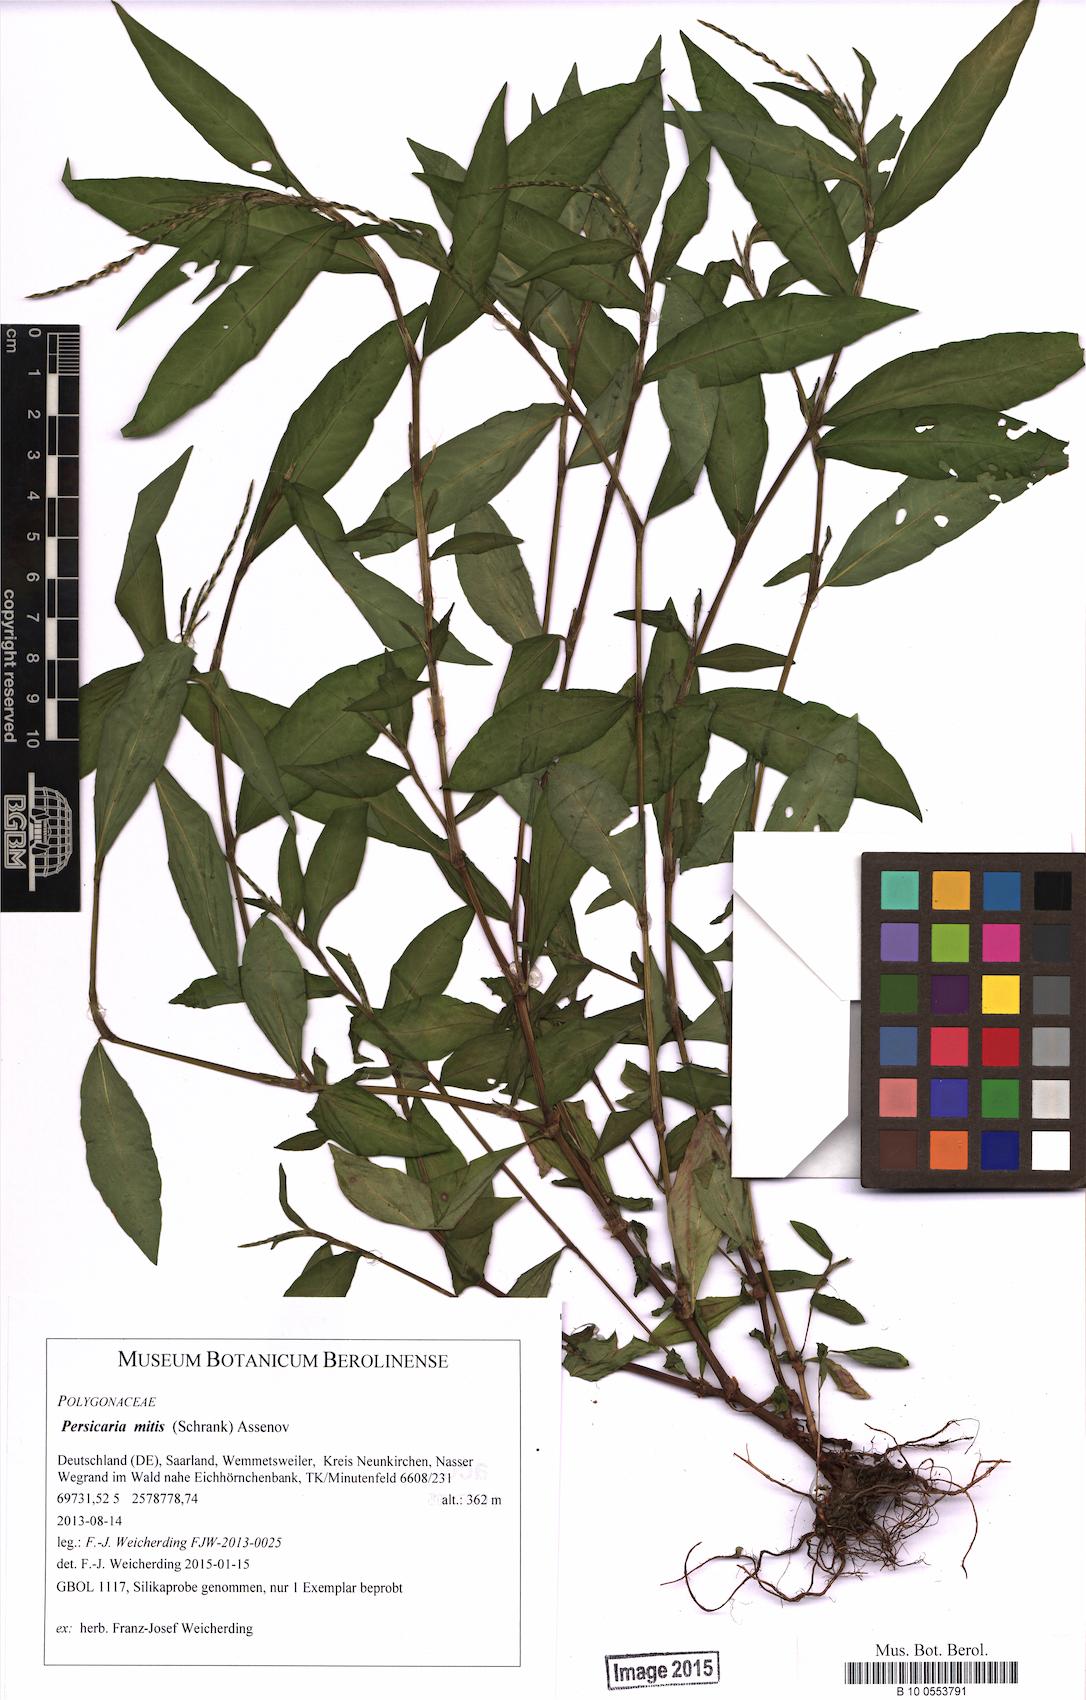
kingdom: Plantae
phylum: Tracheophyta
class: Magnoliopsida
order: Caryophyllales
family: Polygonaceae
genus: Persicaria
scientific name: Persicaria maculosa
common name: Redshank
